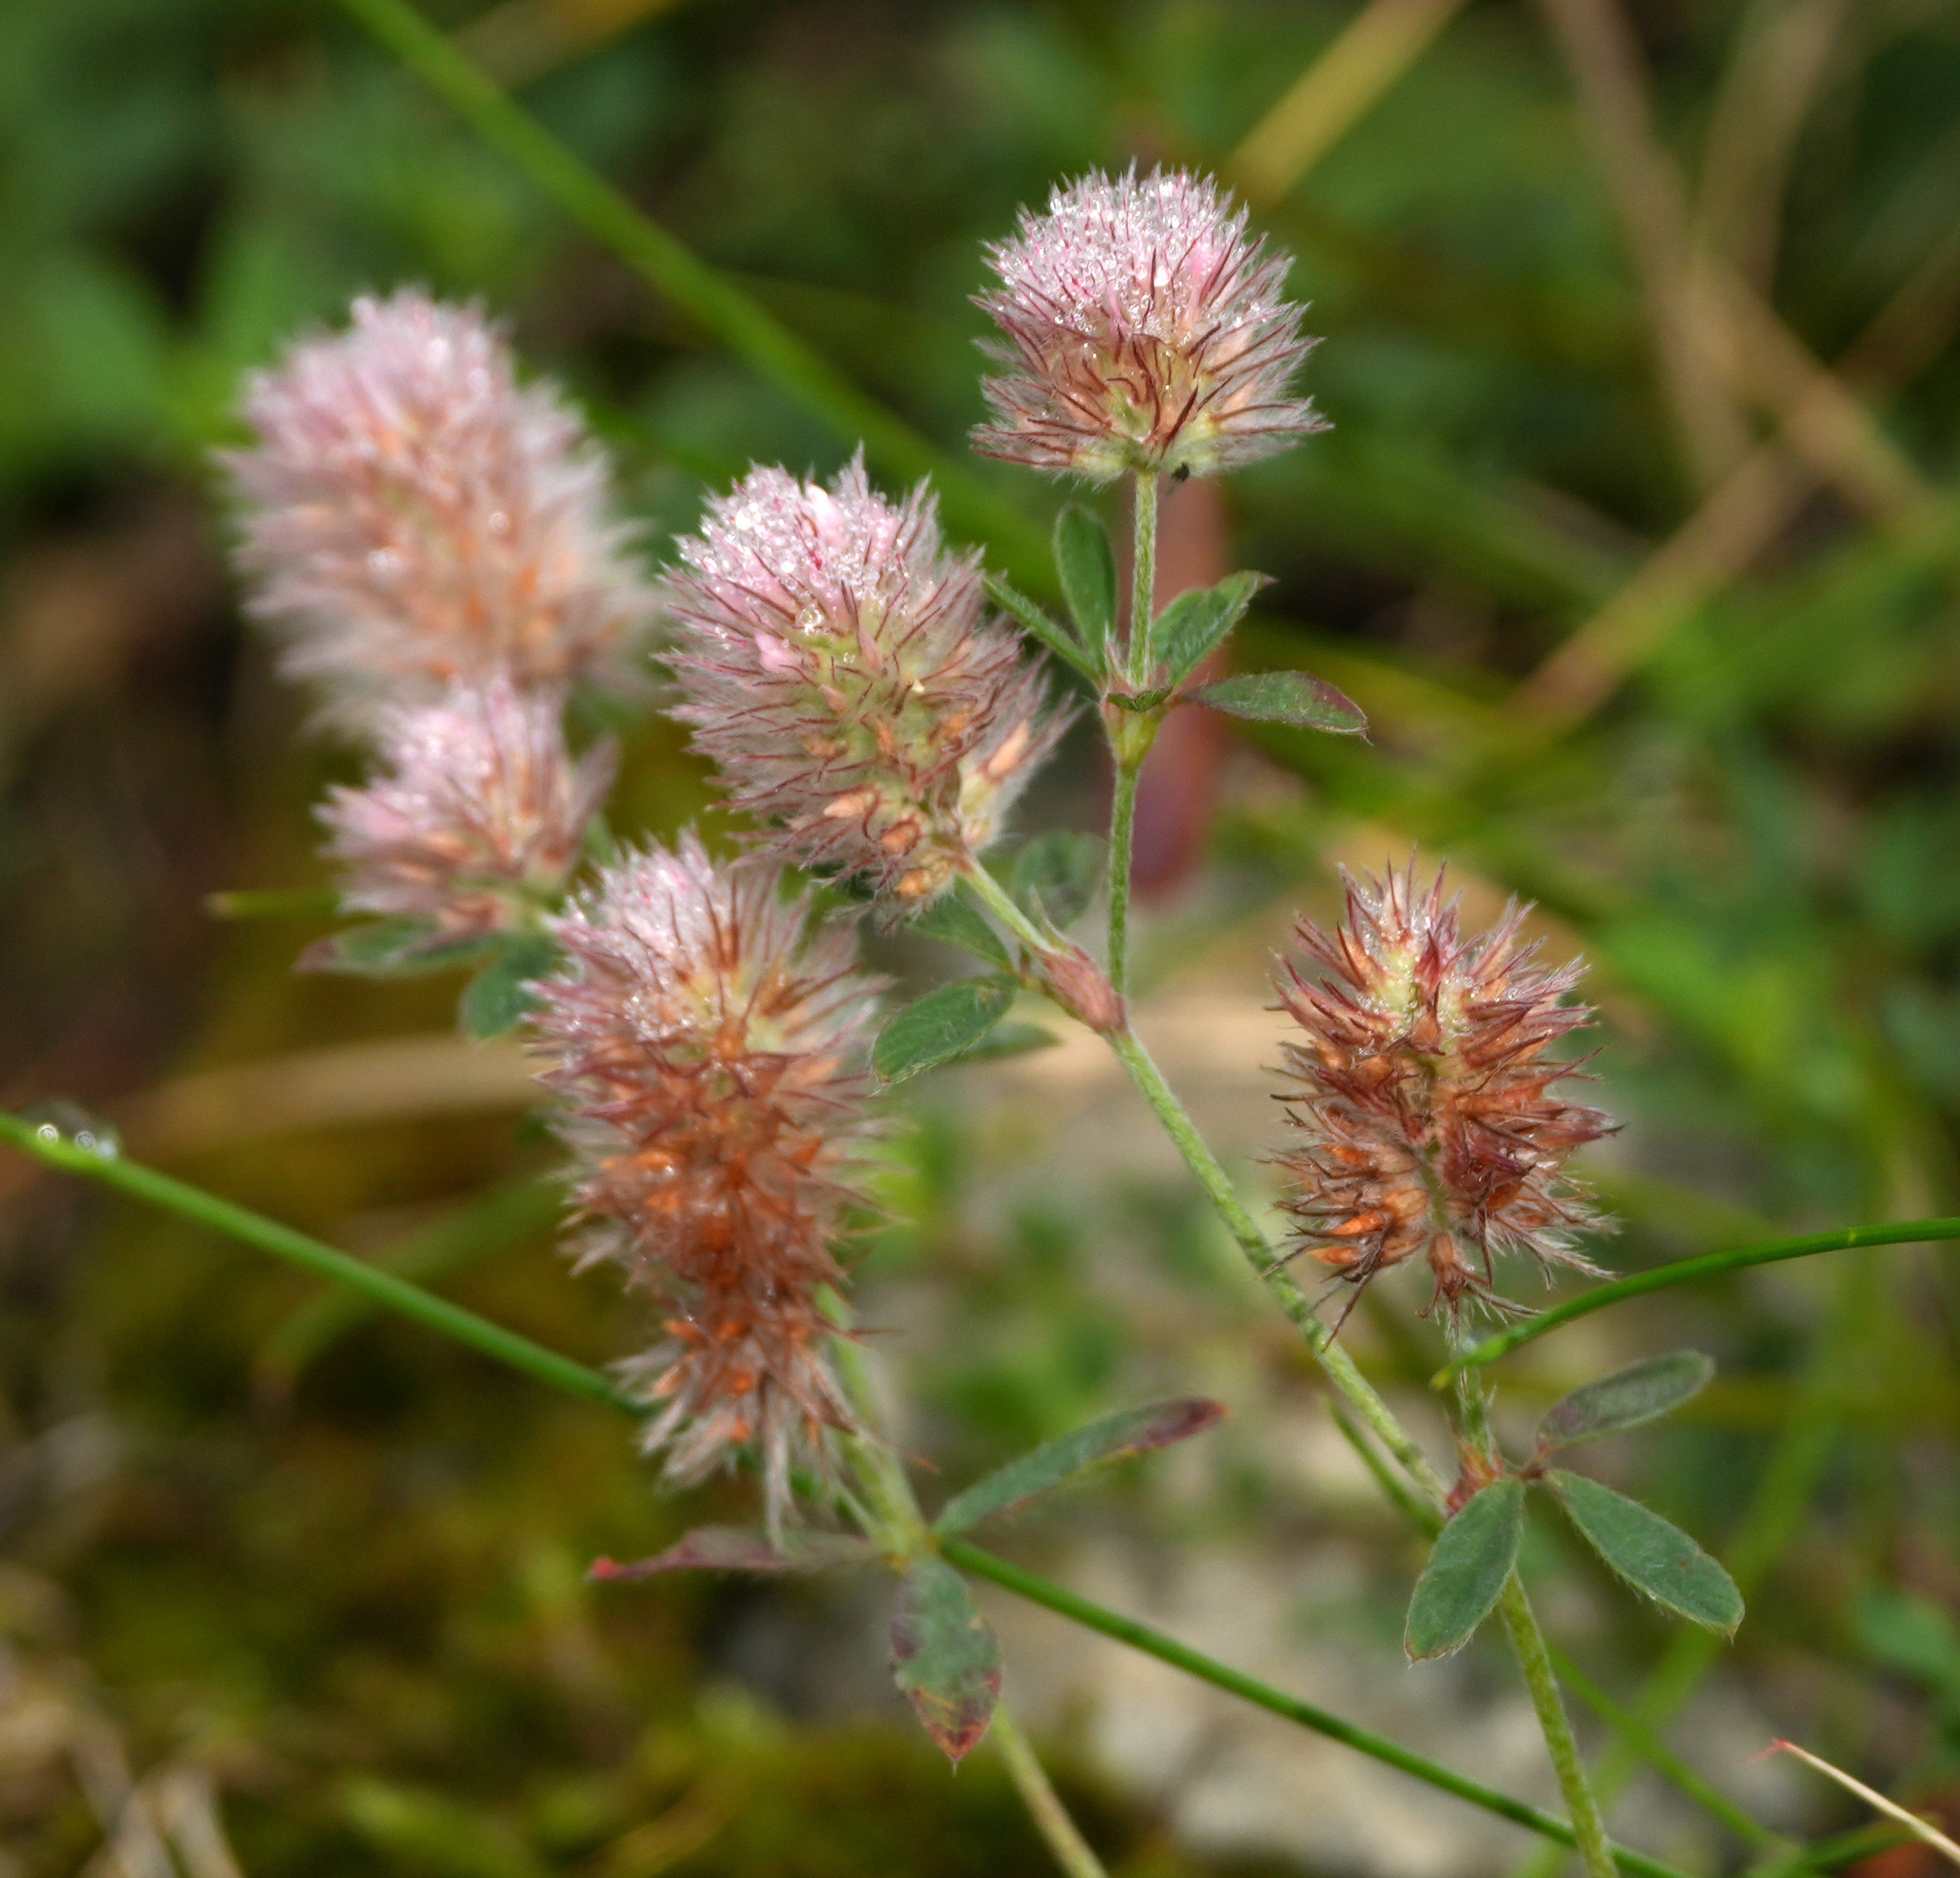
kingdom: Plantae
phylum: Tracheophyta
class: Magnoliopsida
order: Fabales
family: Fabaceae
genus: Trifolium
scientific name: Trifolium arvense
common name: Hare-kløver
